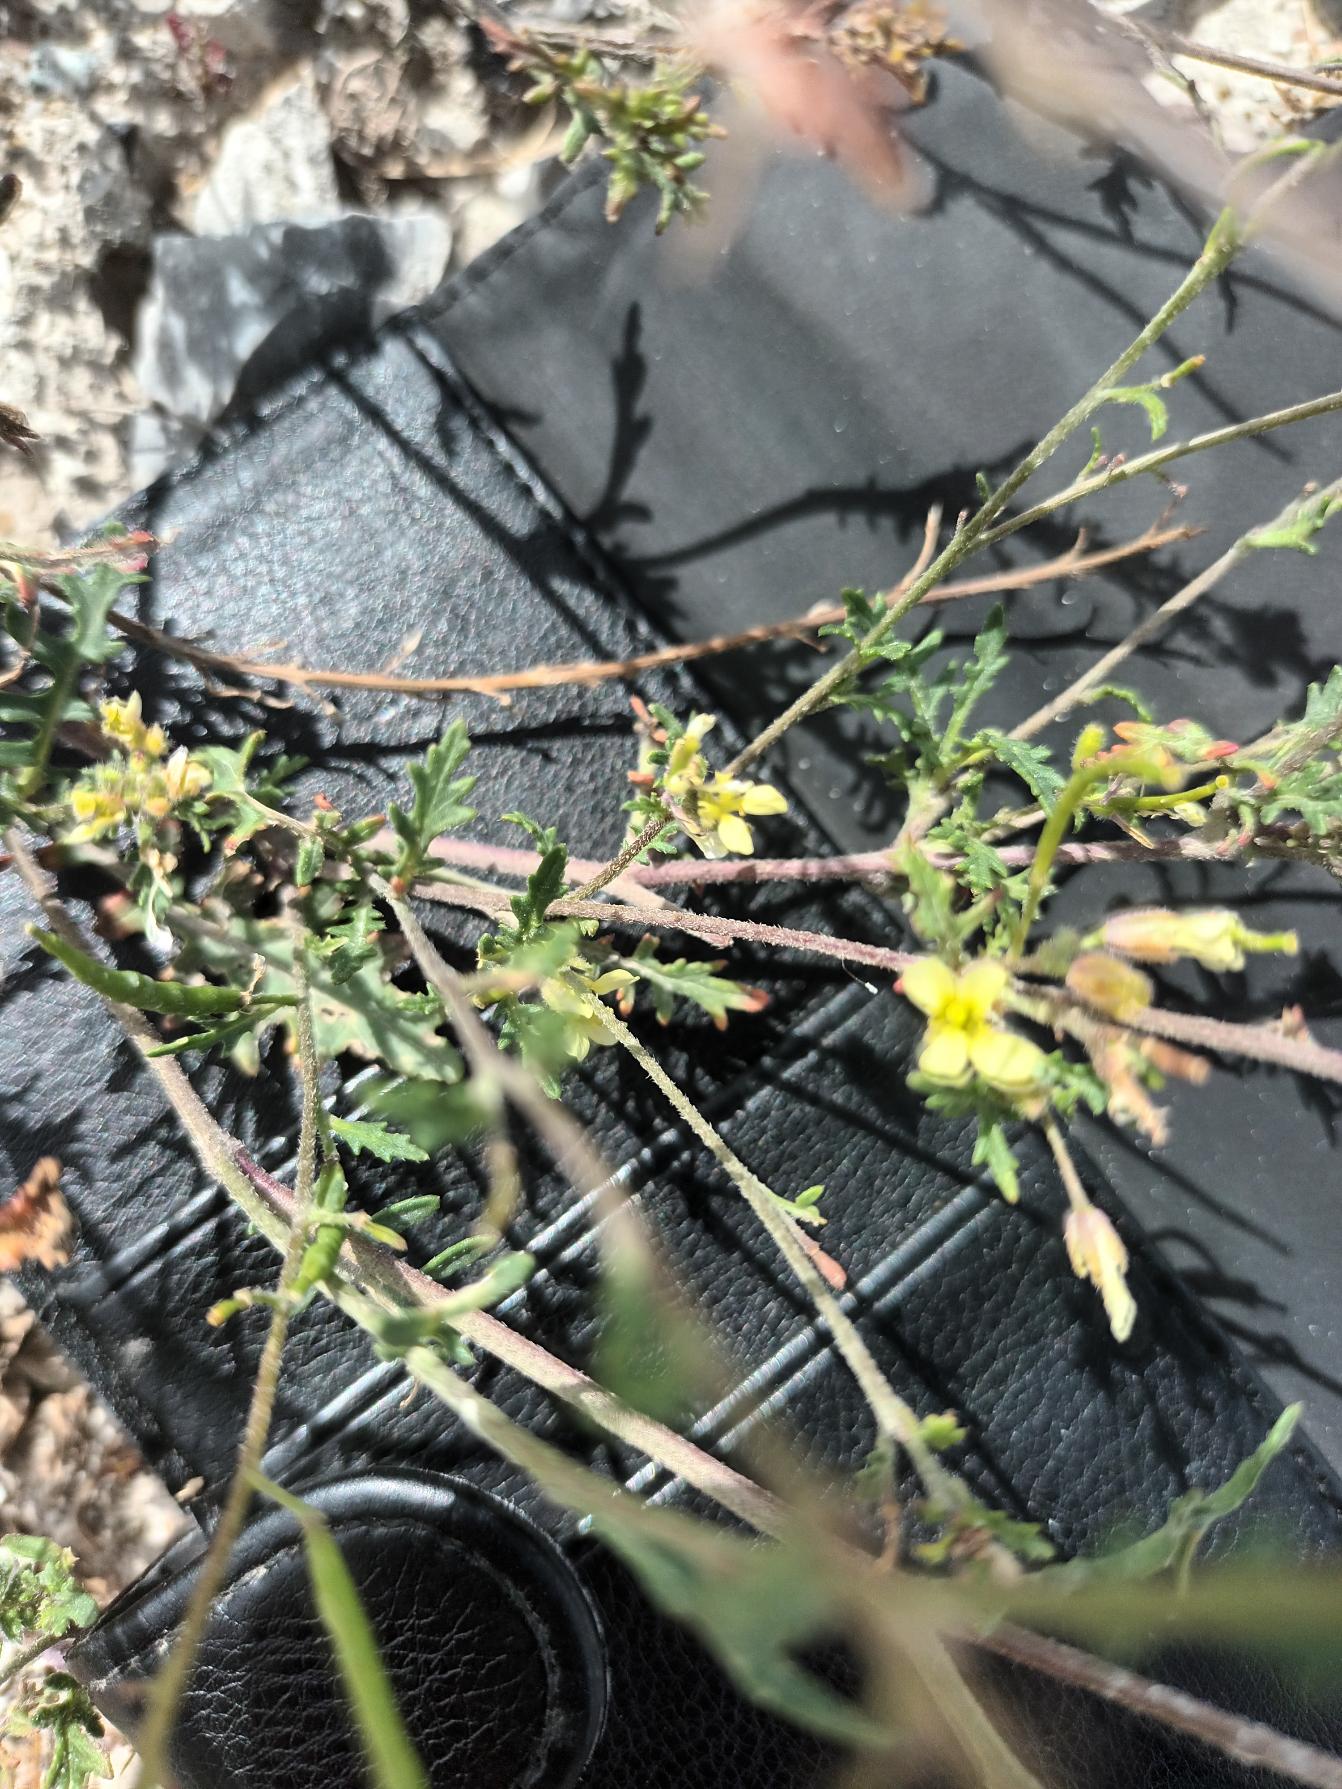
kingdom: Plantae
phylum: Tracheophyta
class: Magnoliopsida
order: Brassicales
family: Brassicaceae
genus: Erucastrum
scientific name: Erucastrum gallicum
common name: Svinesennep
